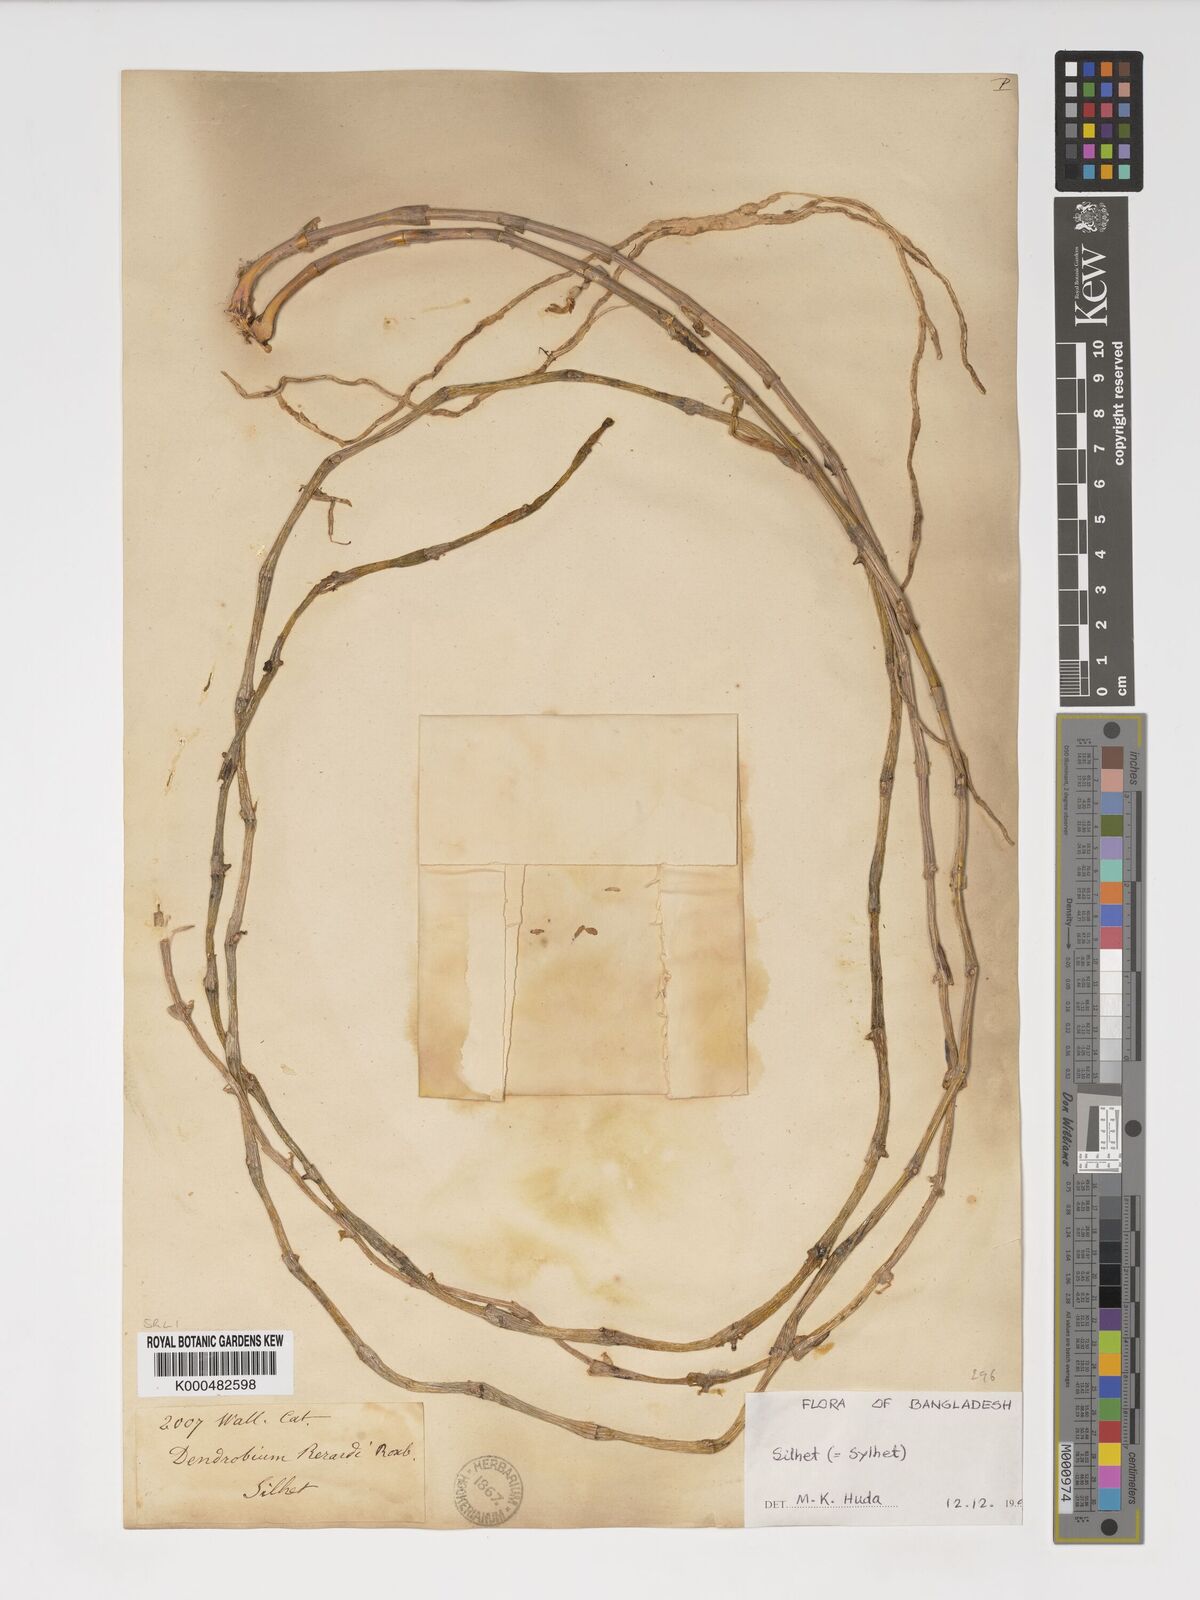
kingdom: Plantae
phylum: Tracheophyta
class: Liliopsida
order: Asparagales
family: Orchidaceae
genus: Dendrobium
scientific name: Dendrobium macrostachyum
